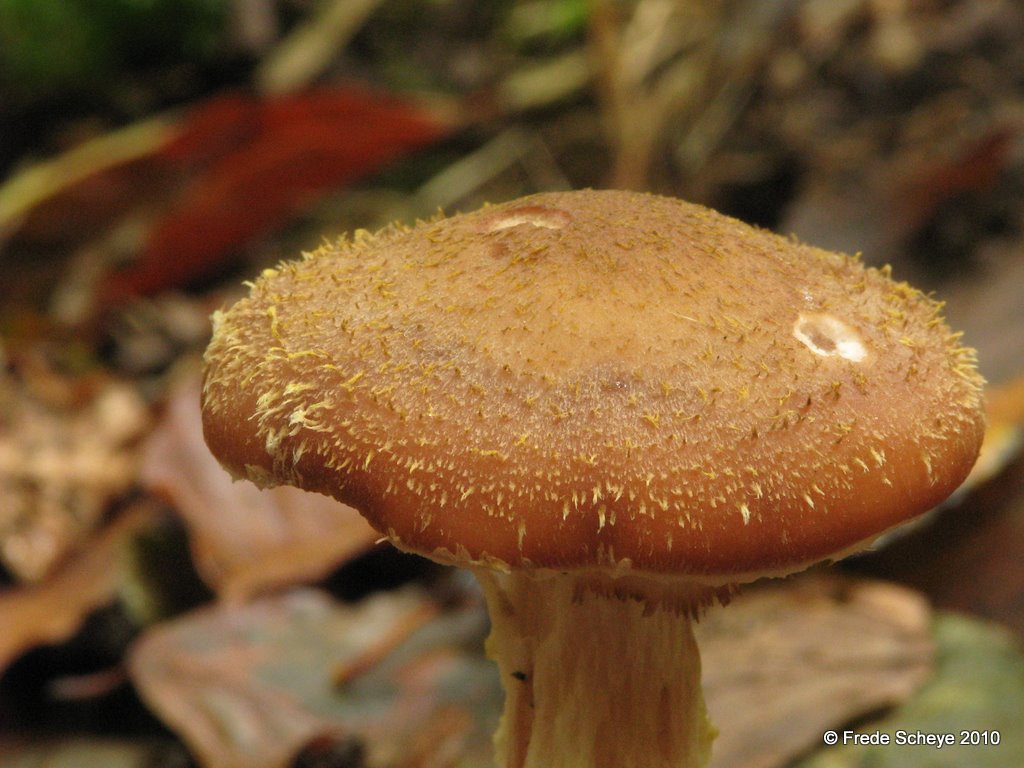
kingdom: Fungi
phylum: Basidiomycota
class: Agaricomycetes
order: Agaricales
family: Physalacriaceae
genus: Armillaria
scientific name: Armillaria lutea
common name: køllestokket honningsvamp
